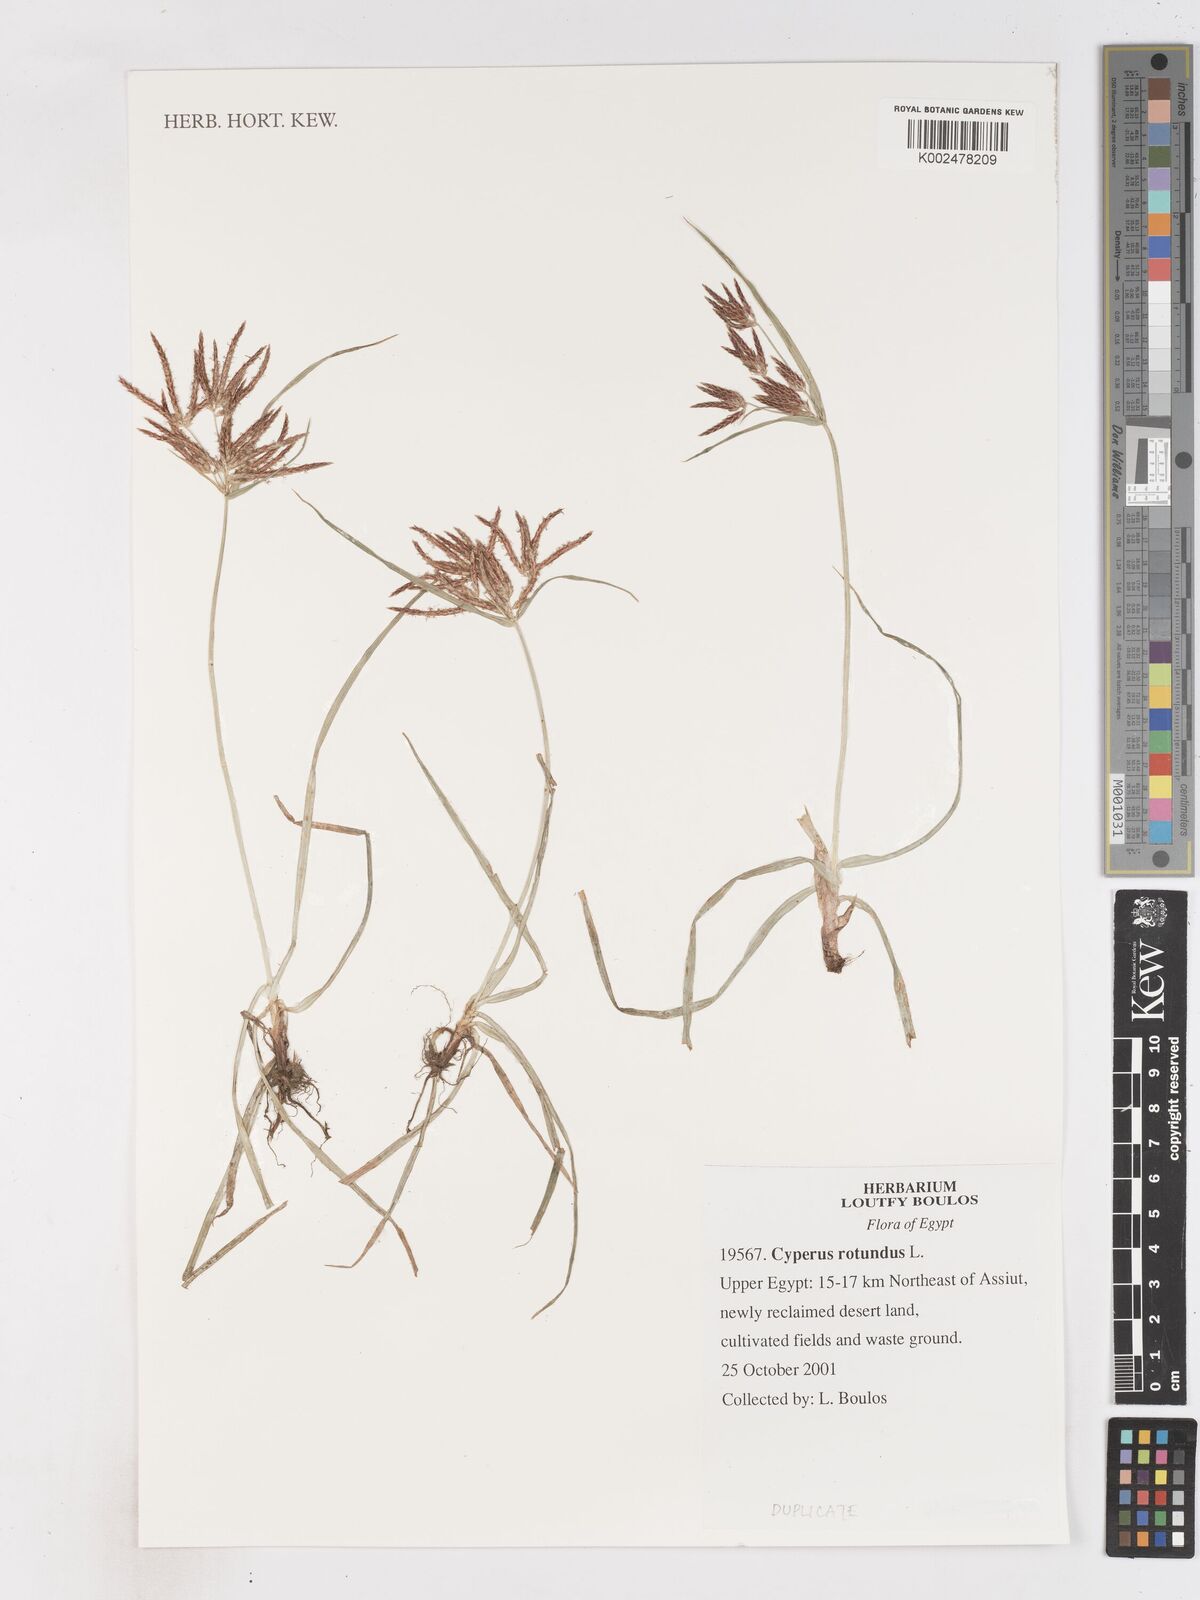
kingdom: Plantae
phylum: Tracheophyta
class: Liliopsida
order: Poales
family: Cyperaceae
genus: Cyperus
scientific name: Cyperus rotundus
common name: Nutgrass
